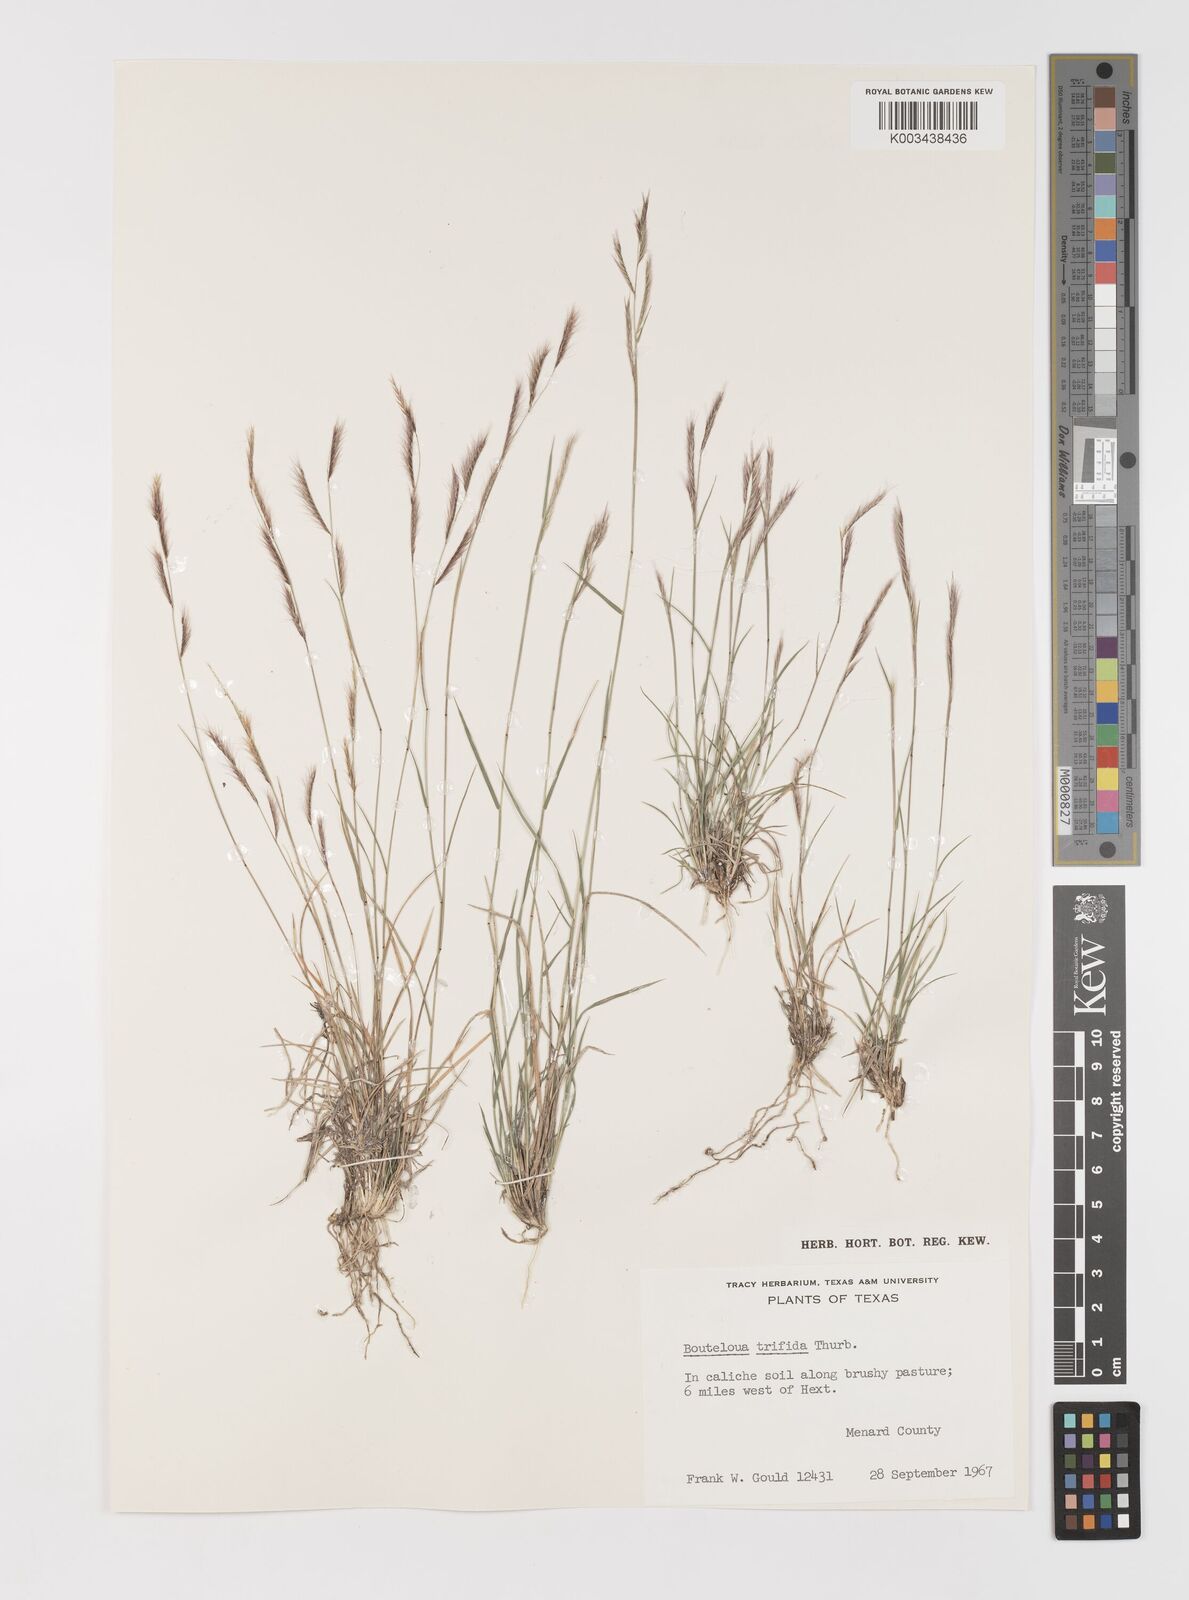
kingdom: Plantae
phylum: Tracheophyta
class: Liliopsida
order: Poales
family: Poaceae
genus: Bouteloua
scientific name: Bouteloua trifida
